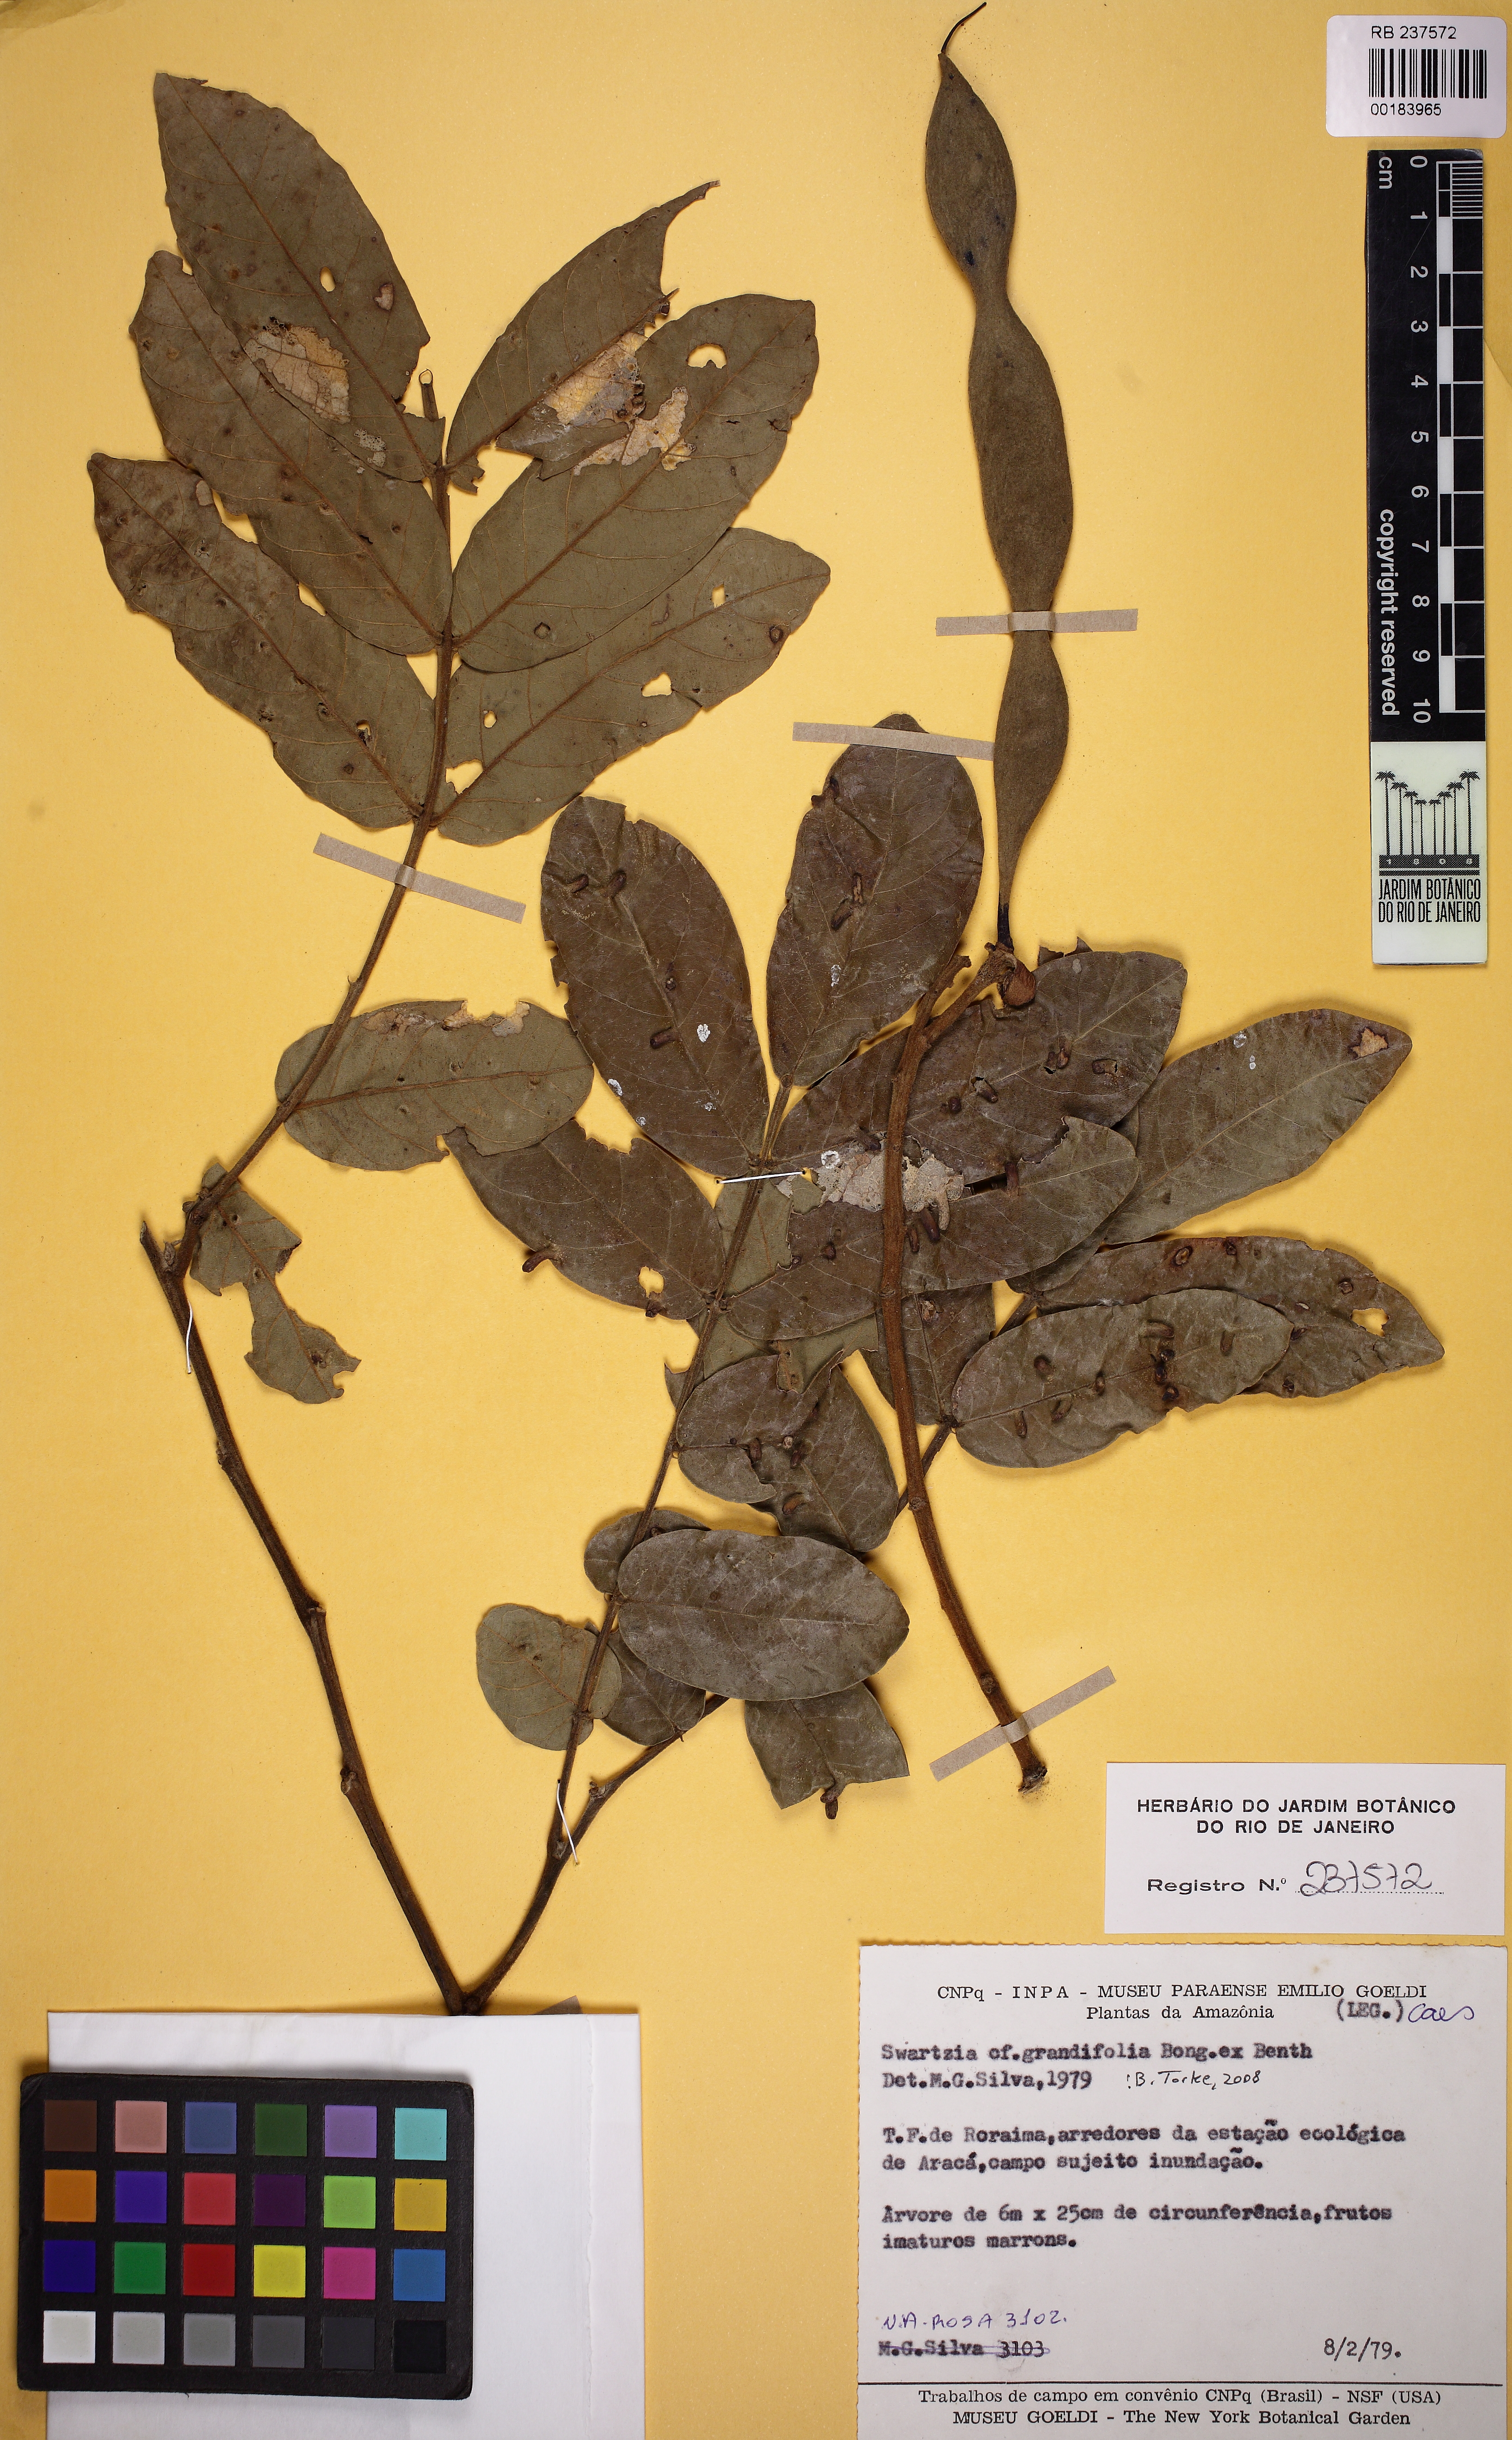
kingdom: Plantae
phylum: Tracheophyta
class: Magnoliopsida
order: Fabales
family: Fabaceae
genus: Swartzia
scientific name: Swartzia grandifolia
